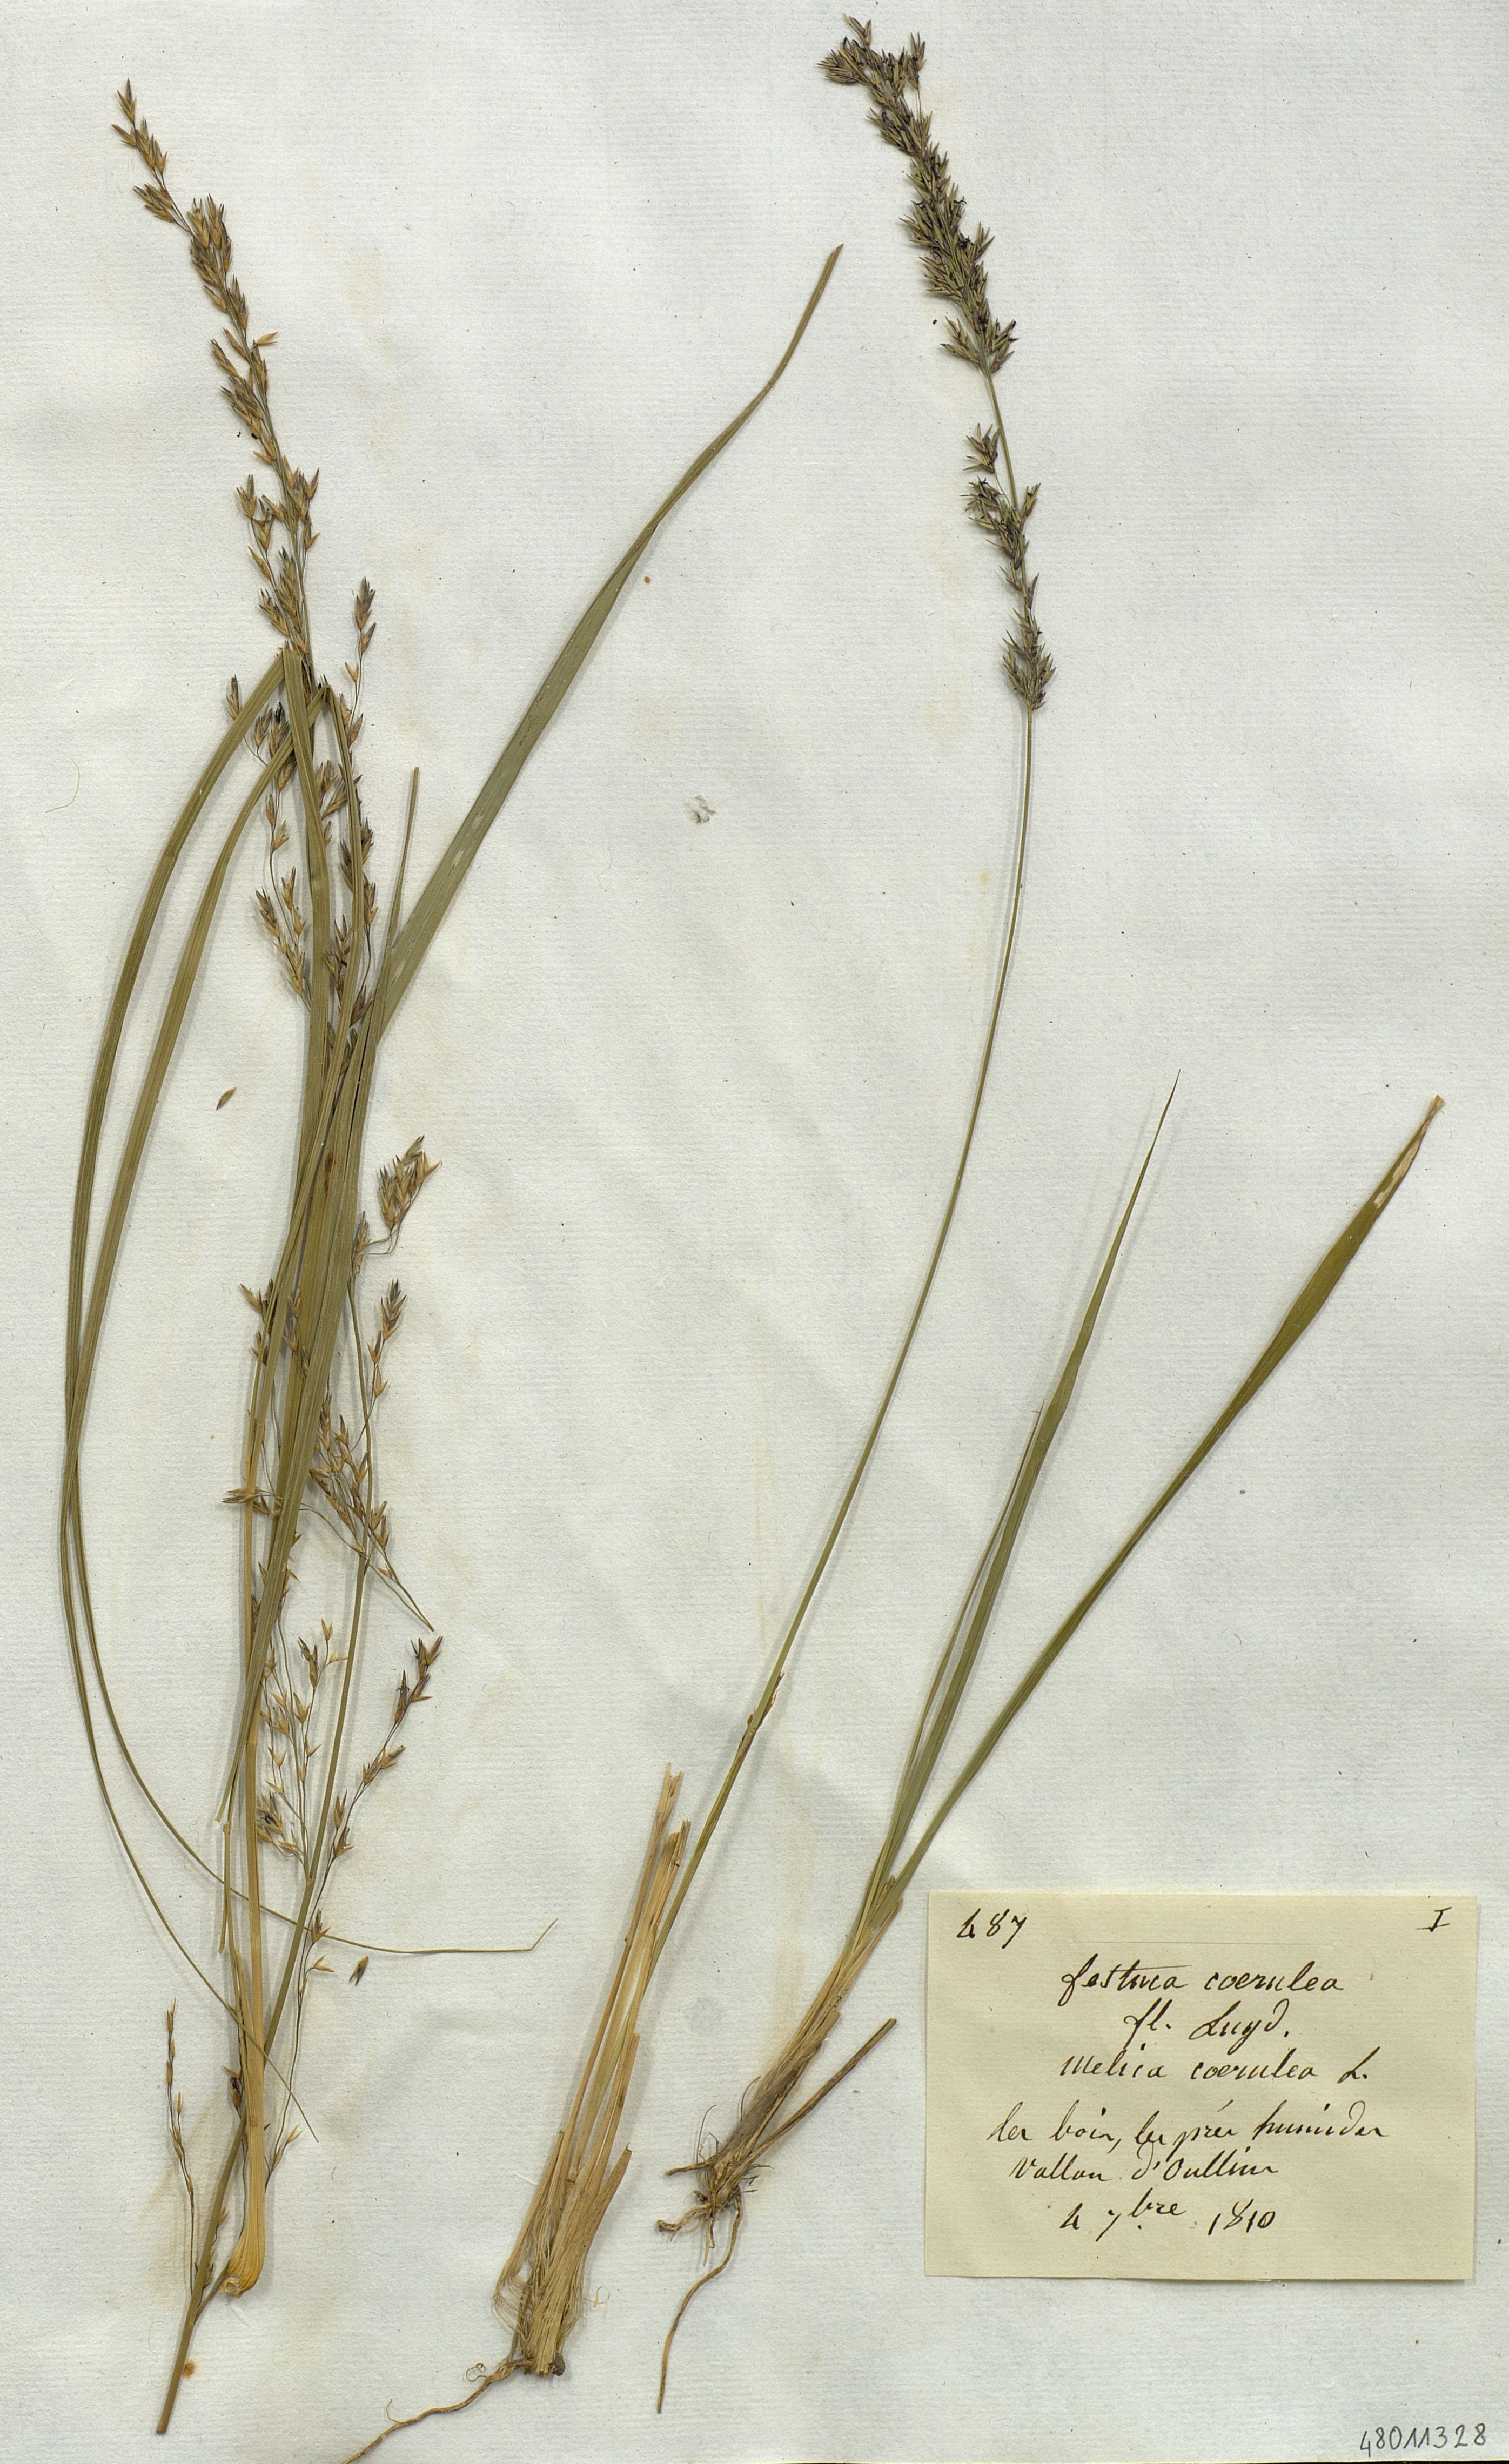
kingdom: Plantae
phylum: Tracheophyta
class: Liliopsida
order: Poales
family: Poaceae
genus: Molinia
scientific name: Molinia caerulea
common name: Purple moor-grass
